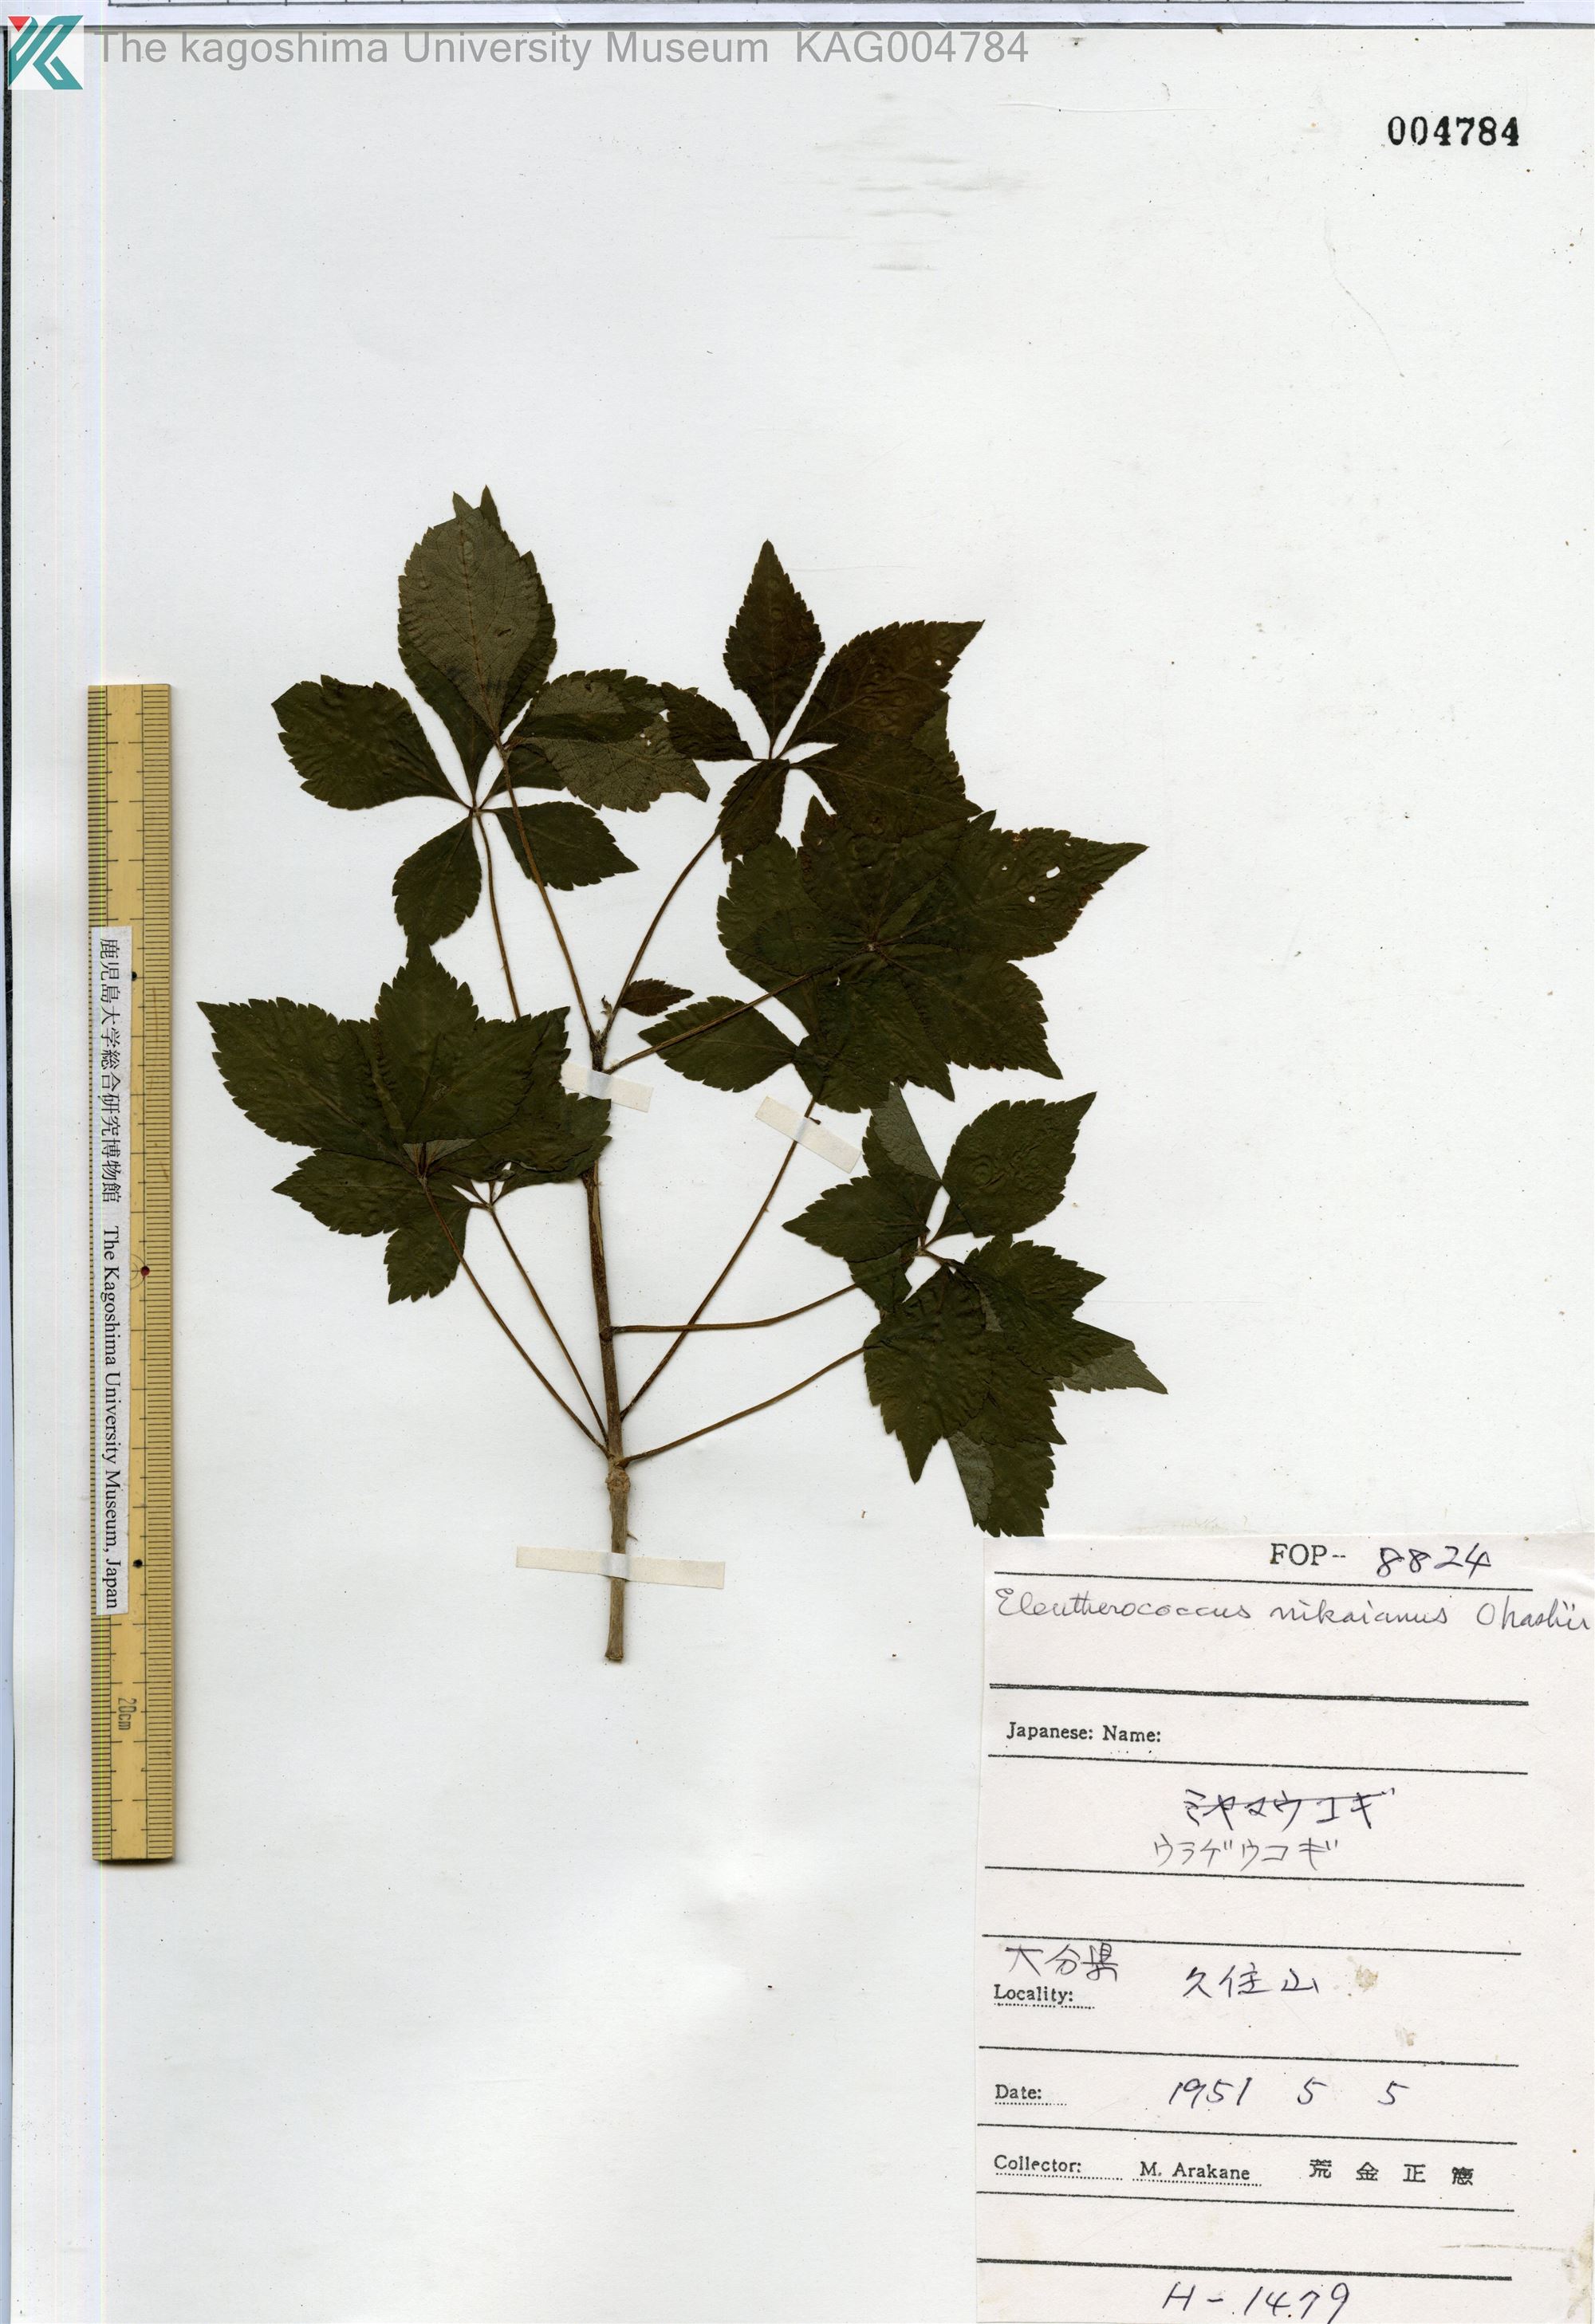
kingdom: Plantae
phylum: Tracheophyta
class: Magnoliopsida
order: Apiales
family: Araliaceae
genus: Eleutherococcus
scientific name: Eleutherococcus nikaianus
